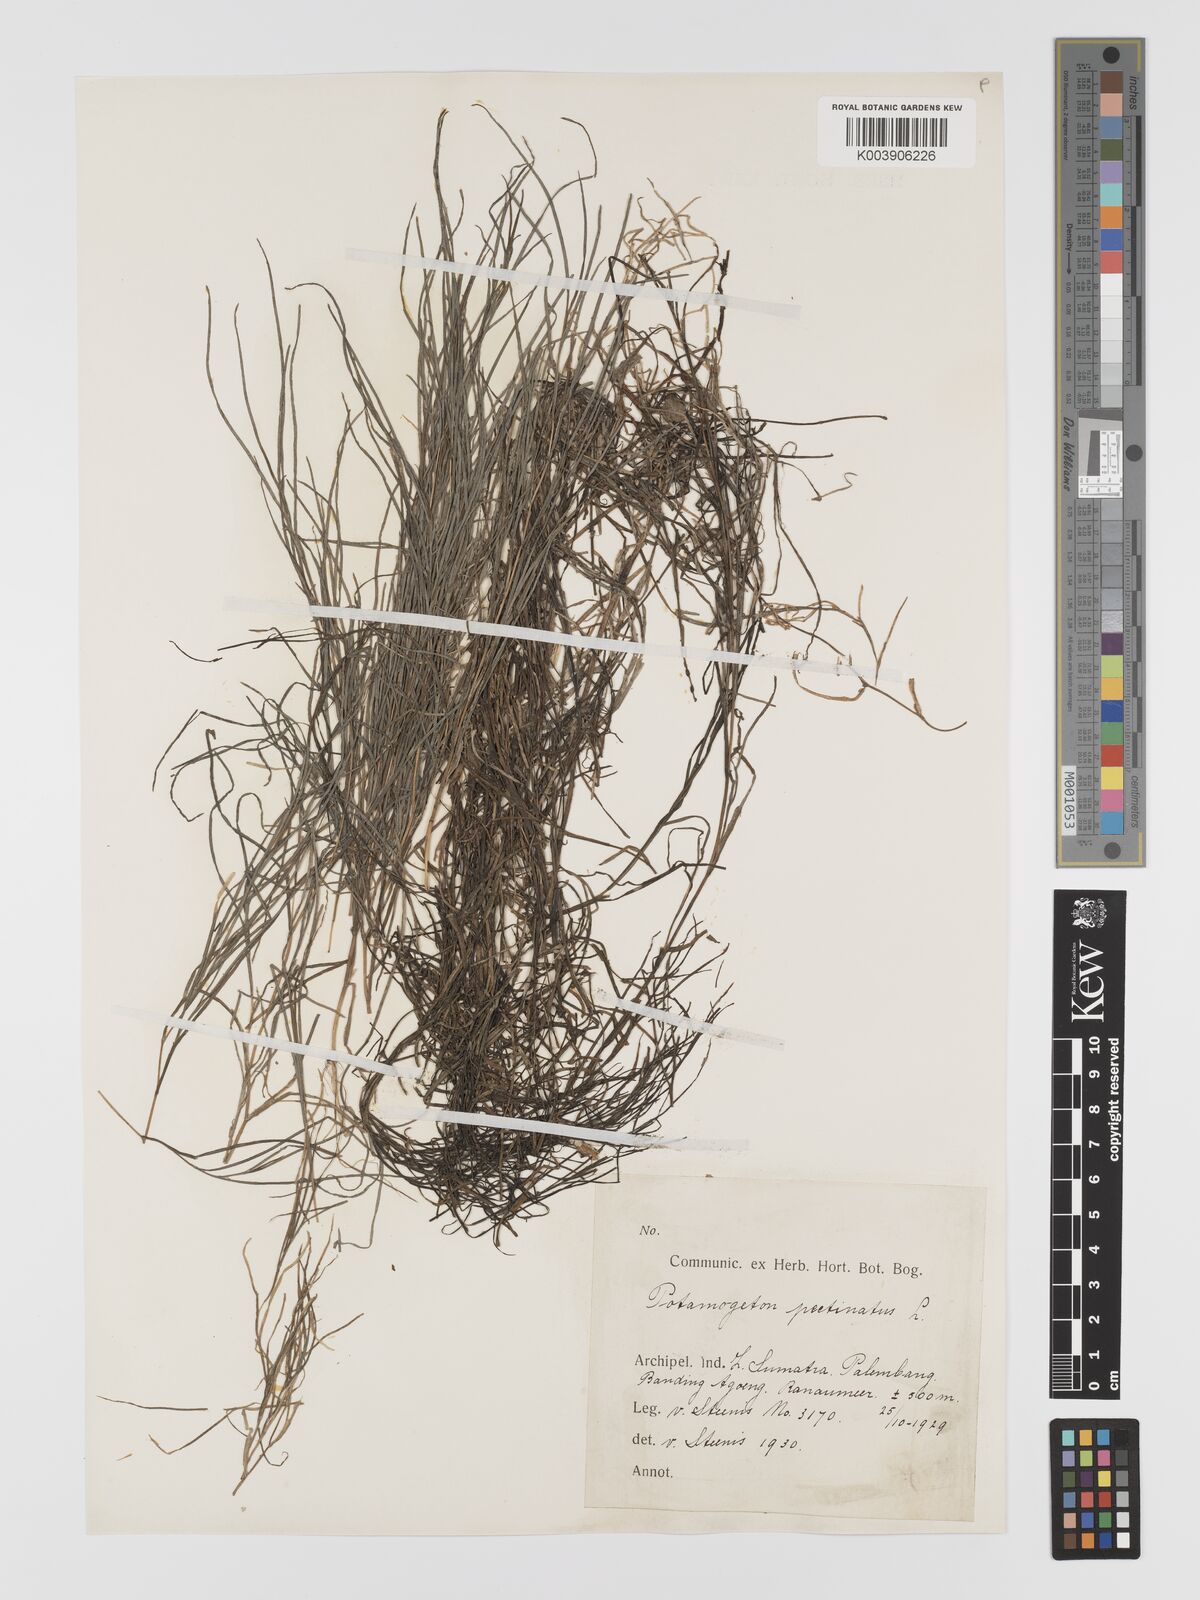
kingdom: Plantae
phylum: Tracheophyta
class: Liliopsida
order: Alismatales
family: Potamogetonaceae
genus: Stuckenia
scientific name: Stuckenia pectinata
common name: Sago pondweed
